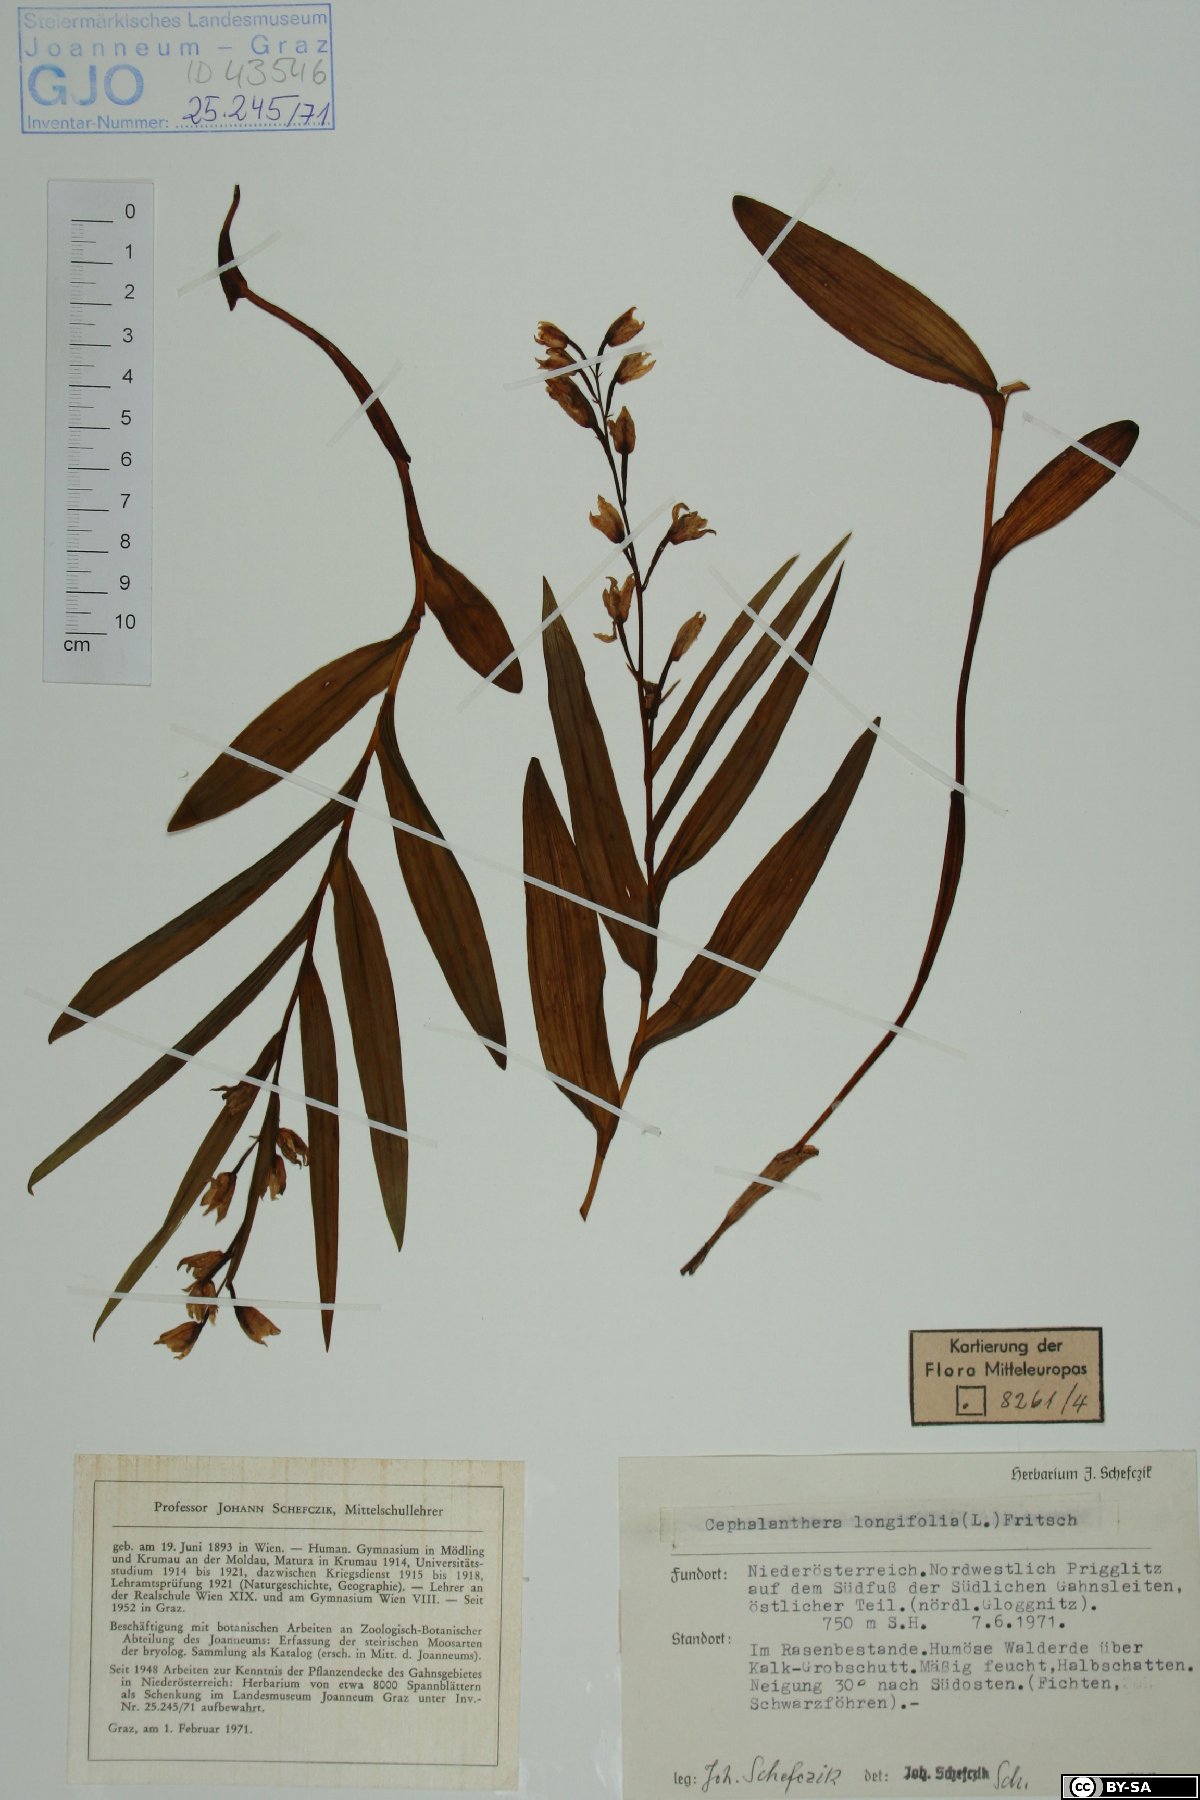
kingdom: Plantae
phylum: Tracheophyta
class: Liliopsida
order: Asparagales
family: Orchidaceae
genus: Cephalanthera
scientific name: Cephalanthera longifolia
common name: Narrow-leaved helleborine
